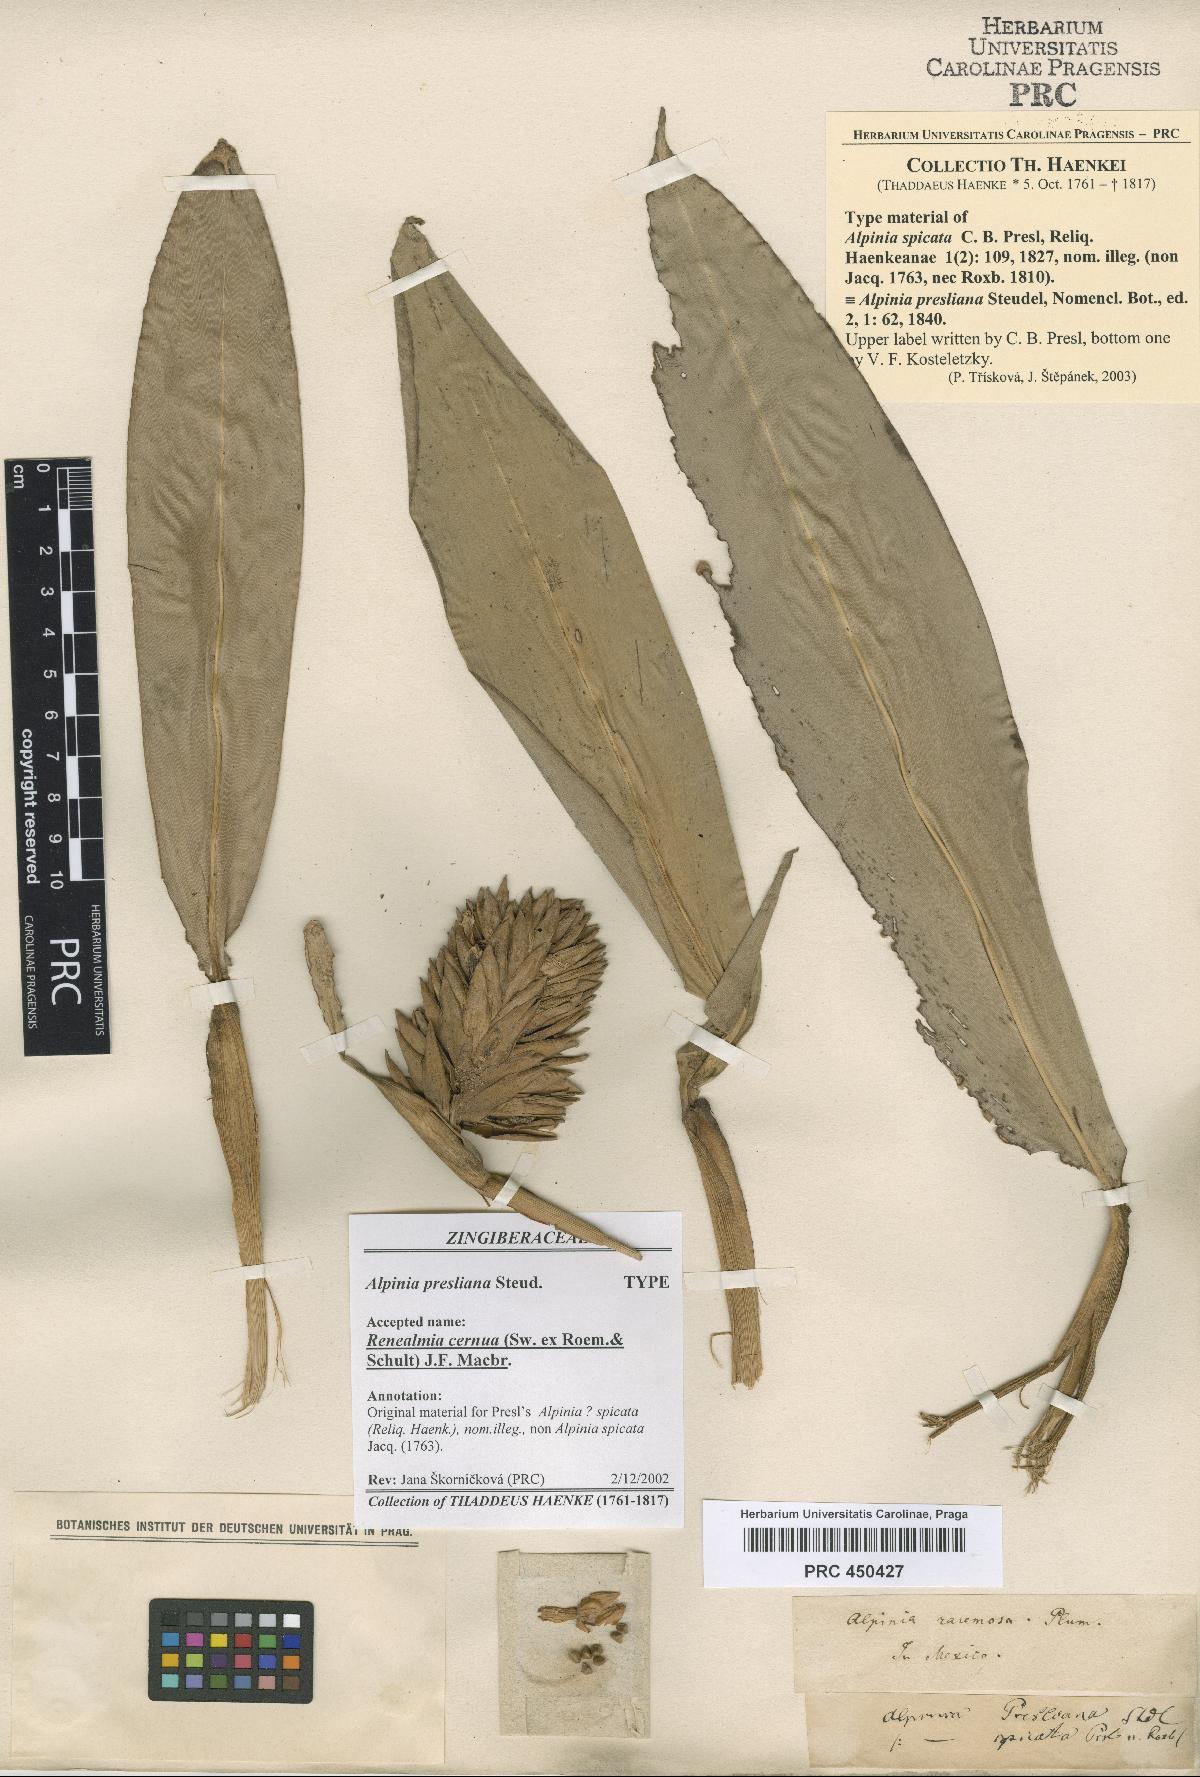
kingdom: Plantae
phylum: Tracheophyta
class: Liliopsida
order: Zingiberales
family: Zingiberaceae
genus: Renealmia
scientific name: Renealmia cernua
